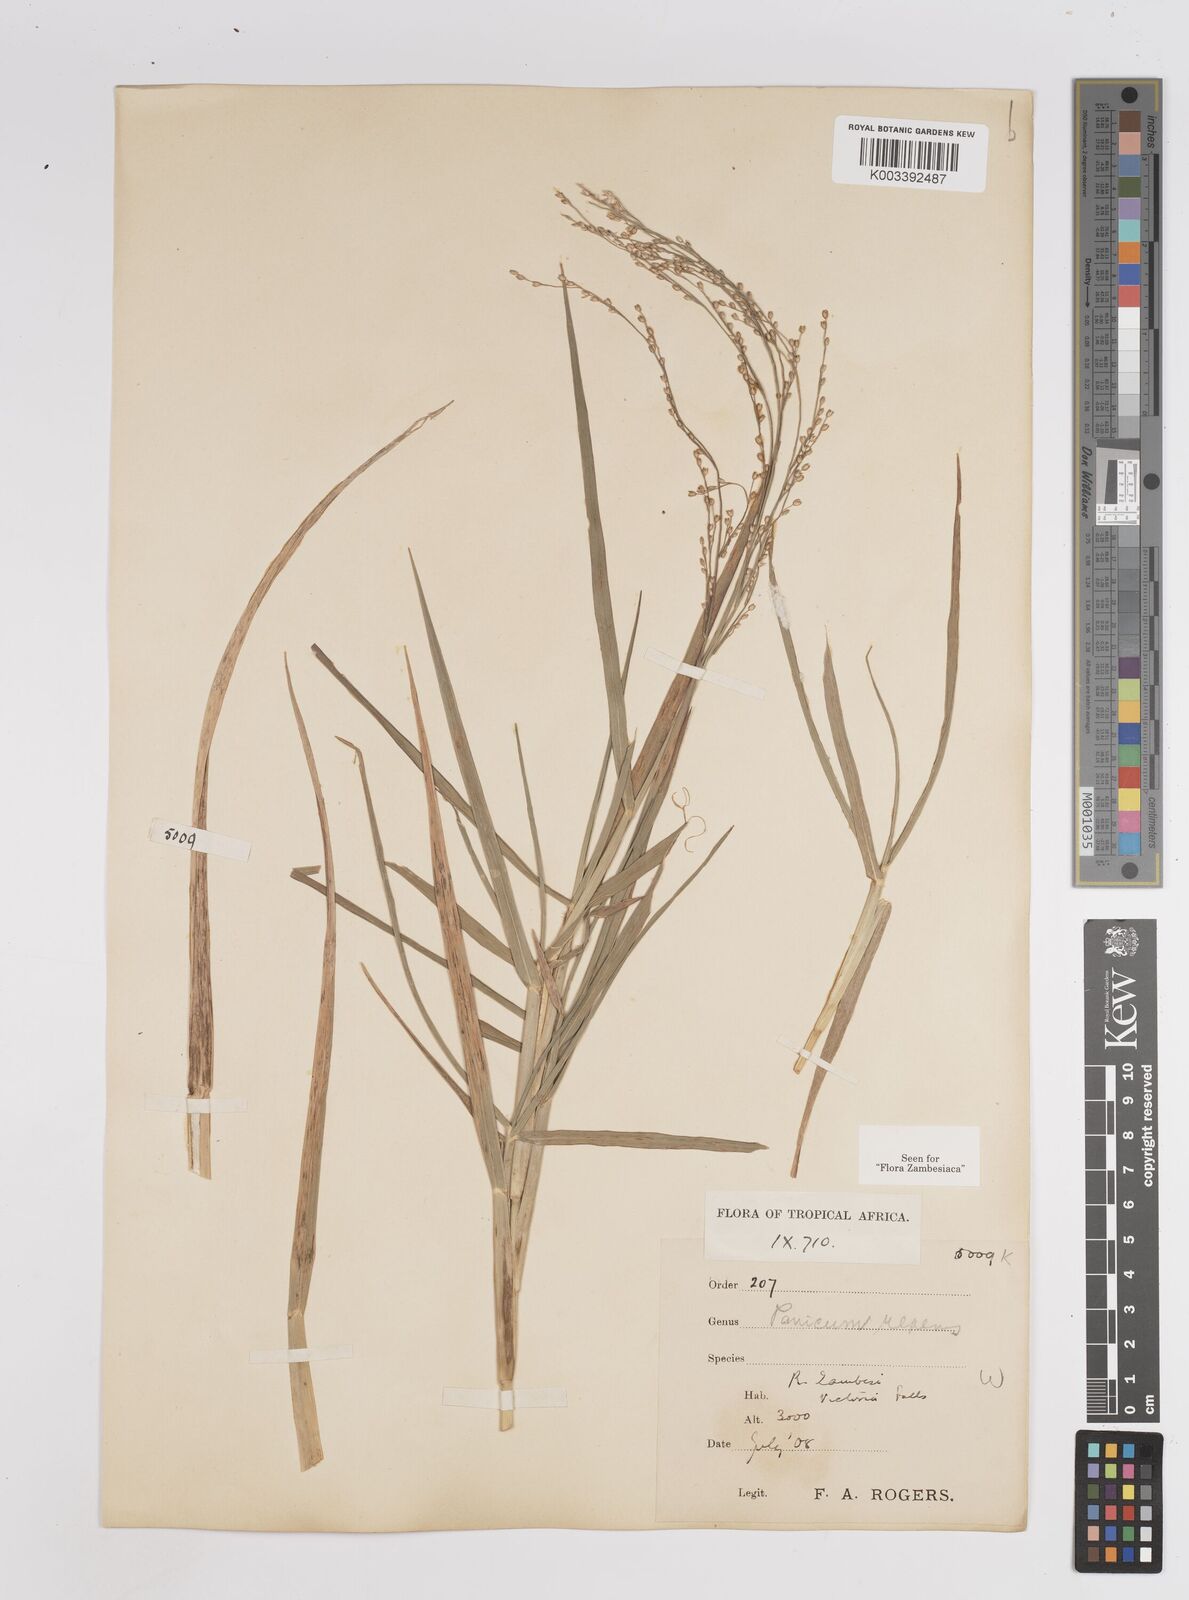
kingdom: Plantae
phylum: Tracheophyta
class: Liliopsida
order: Poales
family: Poaceae
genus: Panicum
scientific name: Panicum repens
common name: Torpedo grass
